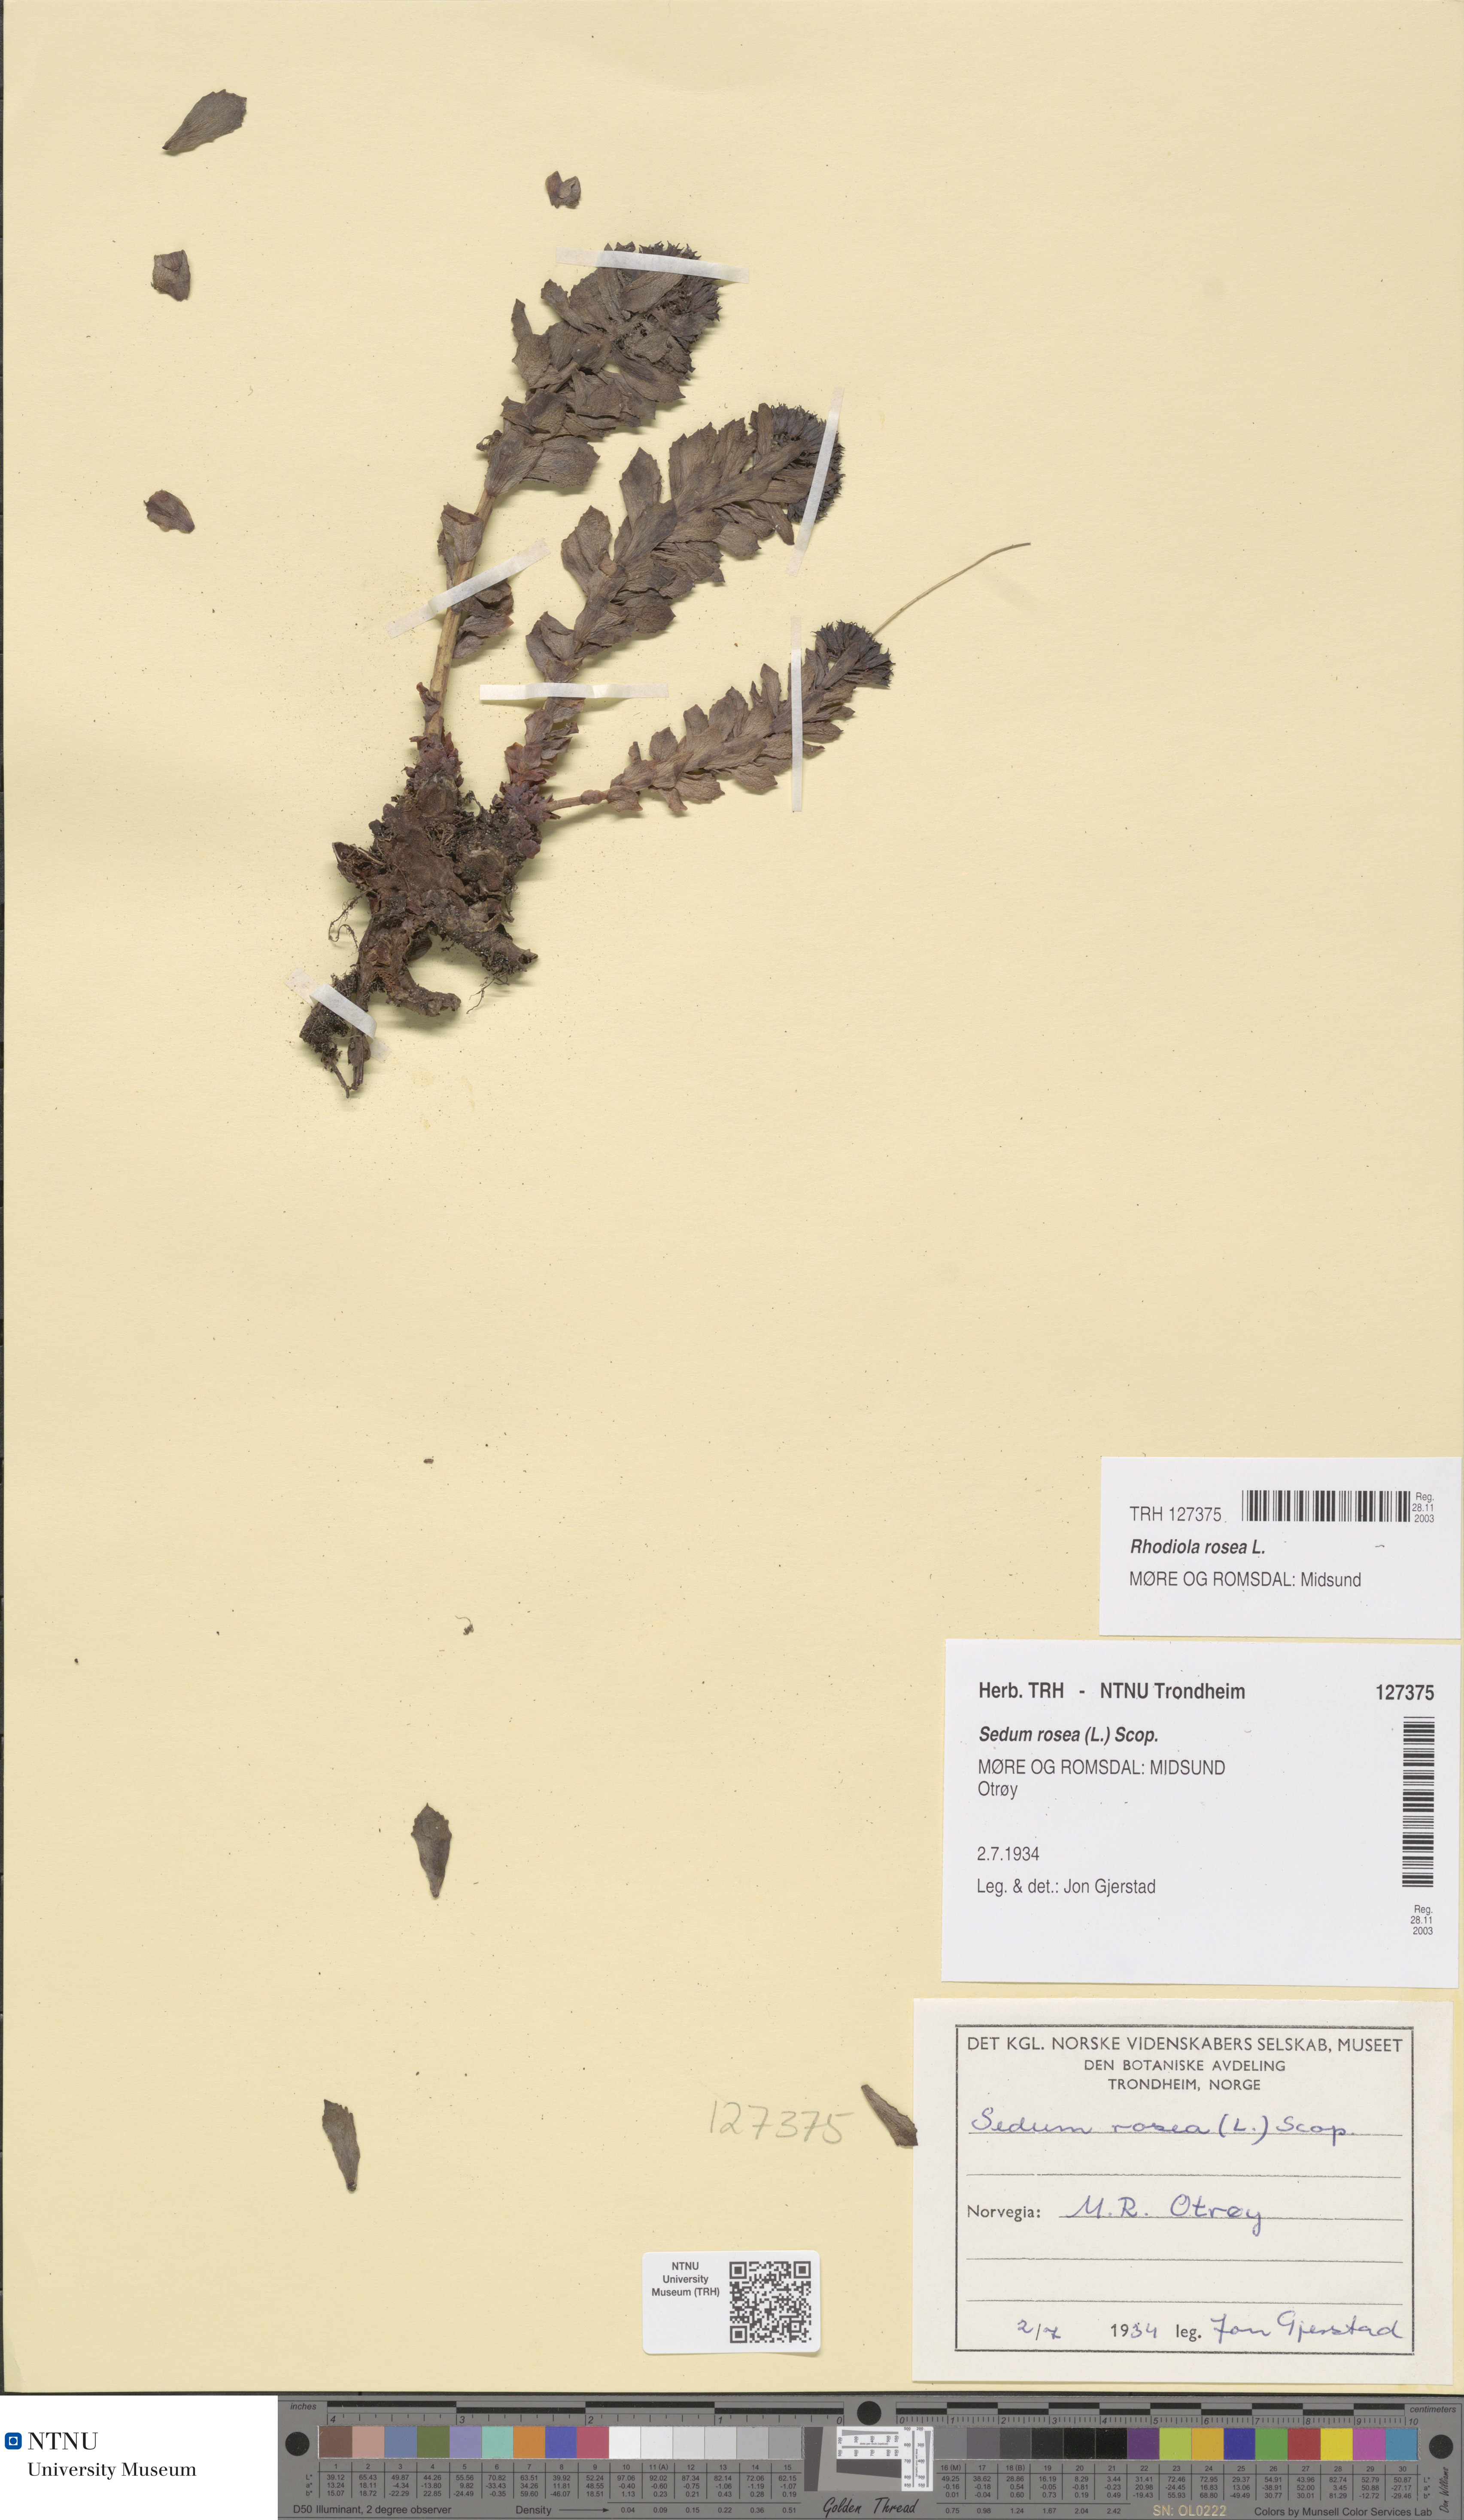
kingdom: Plantae
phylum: Tracheophyta
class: Magnoliopsida
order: Saxifragales
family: Crassulaceae
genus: Rhodiola
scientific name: Rhodiola rosea
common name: Roseroot
